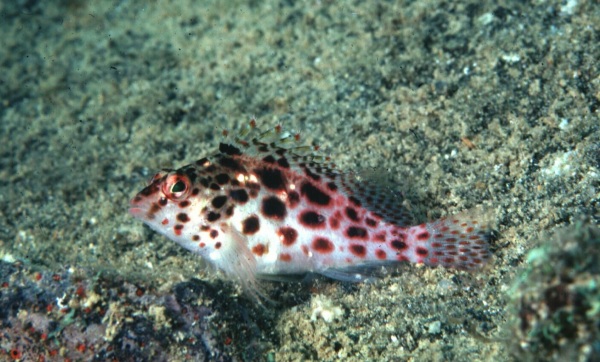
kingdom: Animalia
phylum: Chordata
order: Perciformes
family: Cirrhitidae
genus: Cirrhitichthys
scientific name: Cirrhitichthys oxycephalus
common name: Spotted hawkfish
